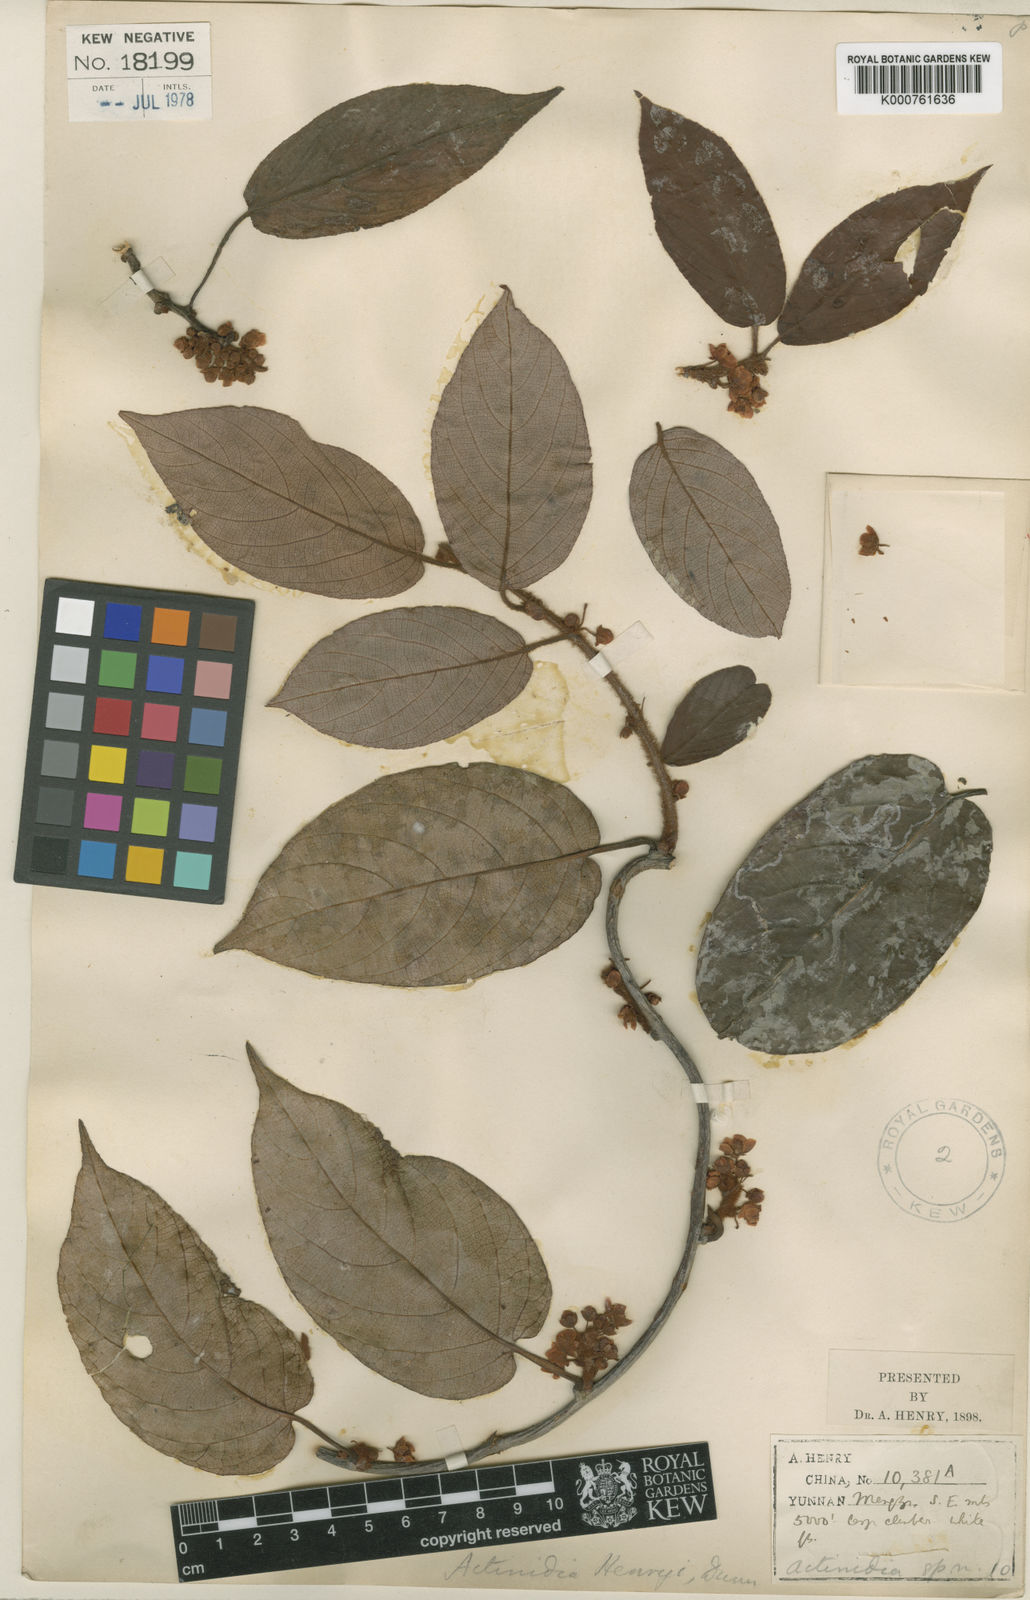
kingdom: Plantae
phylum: Tracheophyta
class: Magnoliopsida
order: Ericales
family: Actinidiaceae
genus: Actinidia
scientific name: Actinidia henryi
